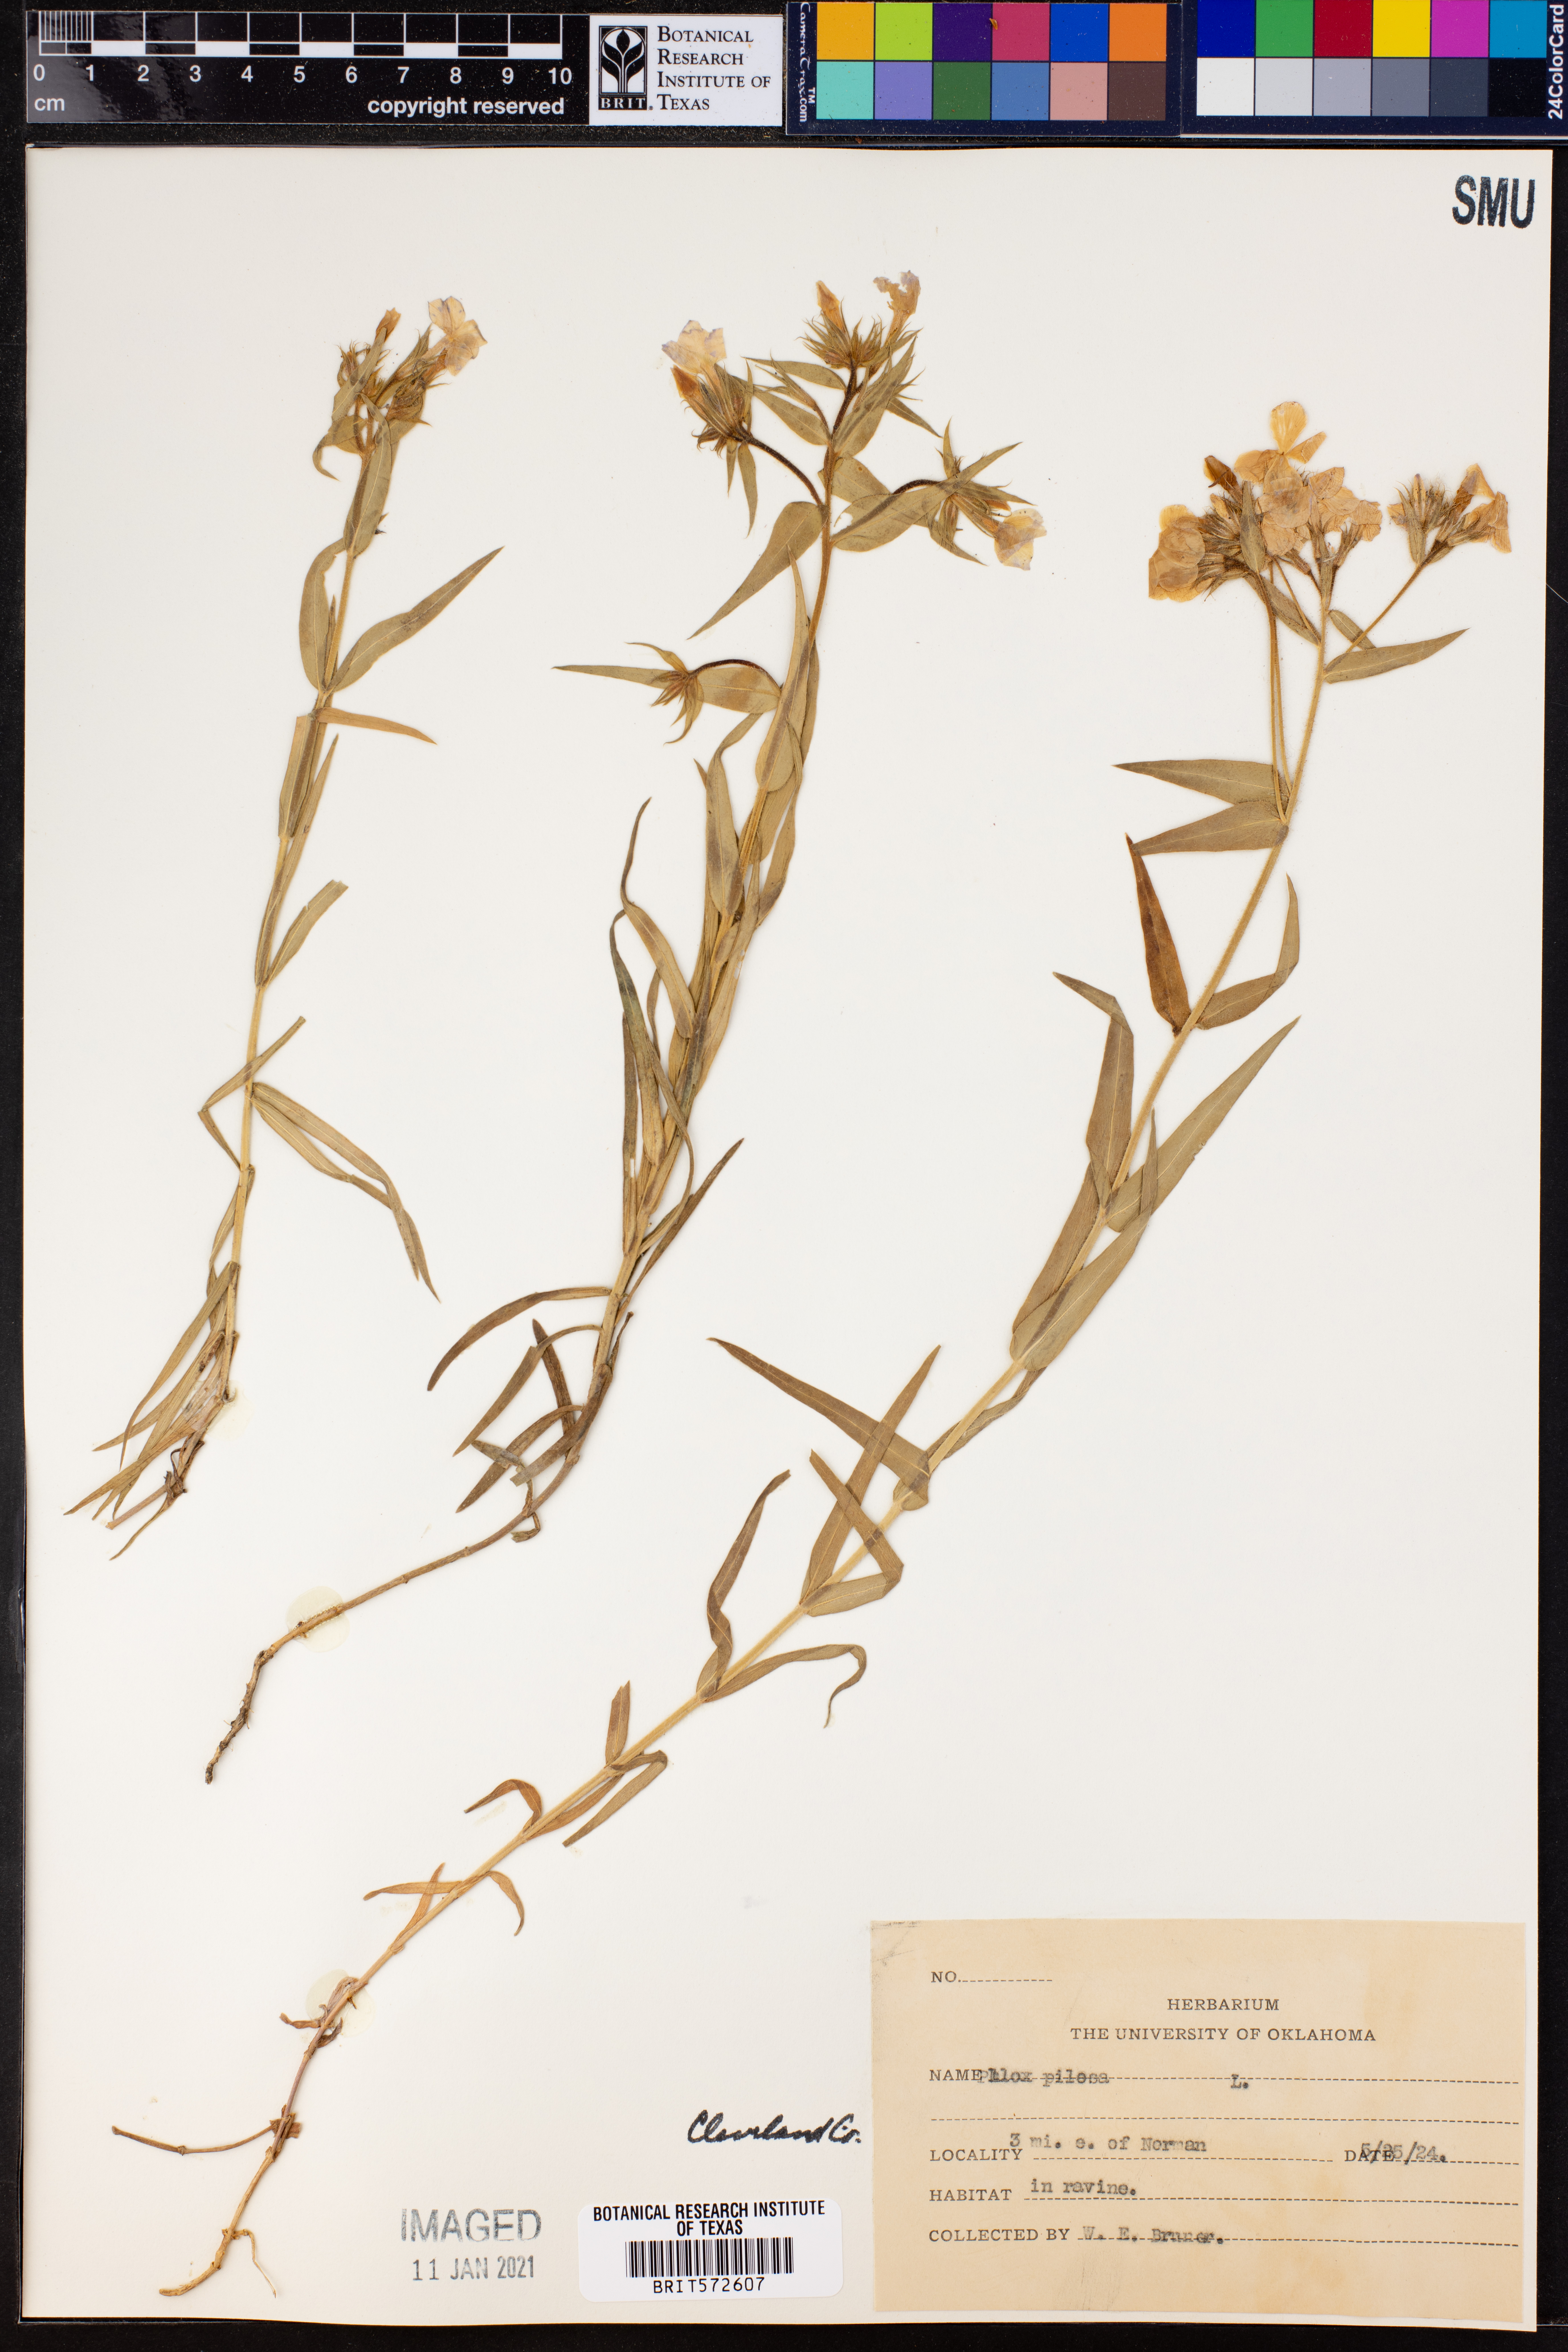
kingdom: Plantae
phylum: Tracheophyta
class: Magnoliopsida
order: Ericales
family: Polemoniaceae
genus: Phlox
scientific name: Phlox pilosa
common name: Prairie phlox
